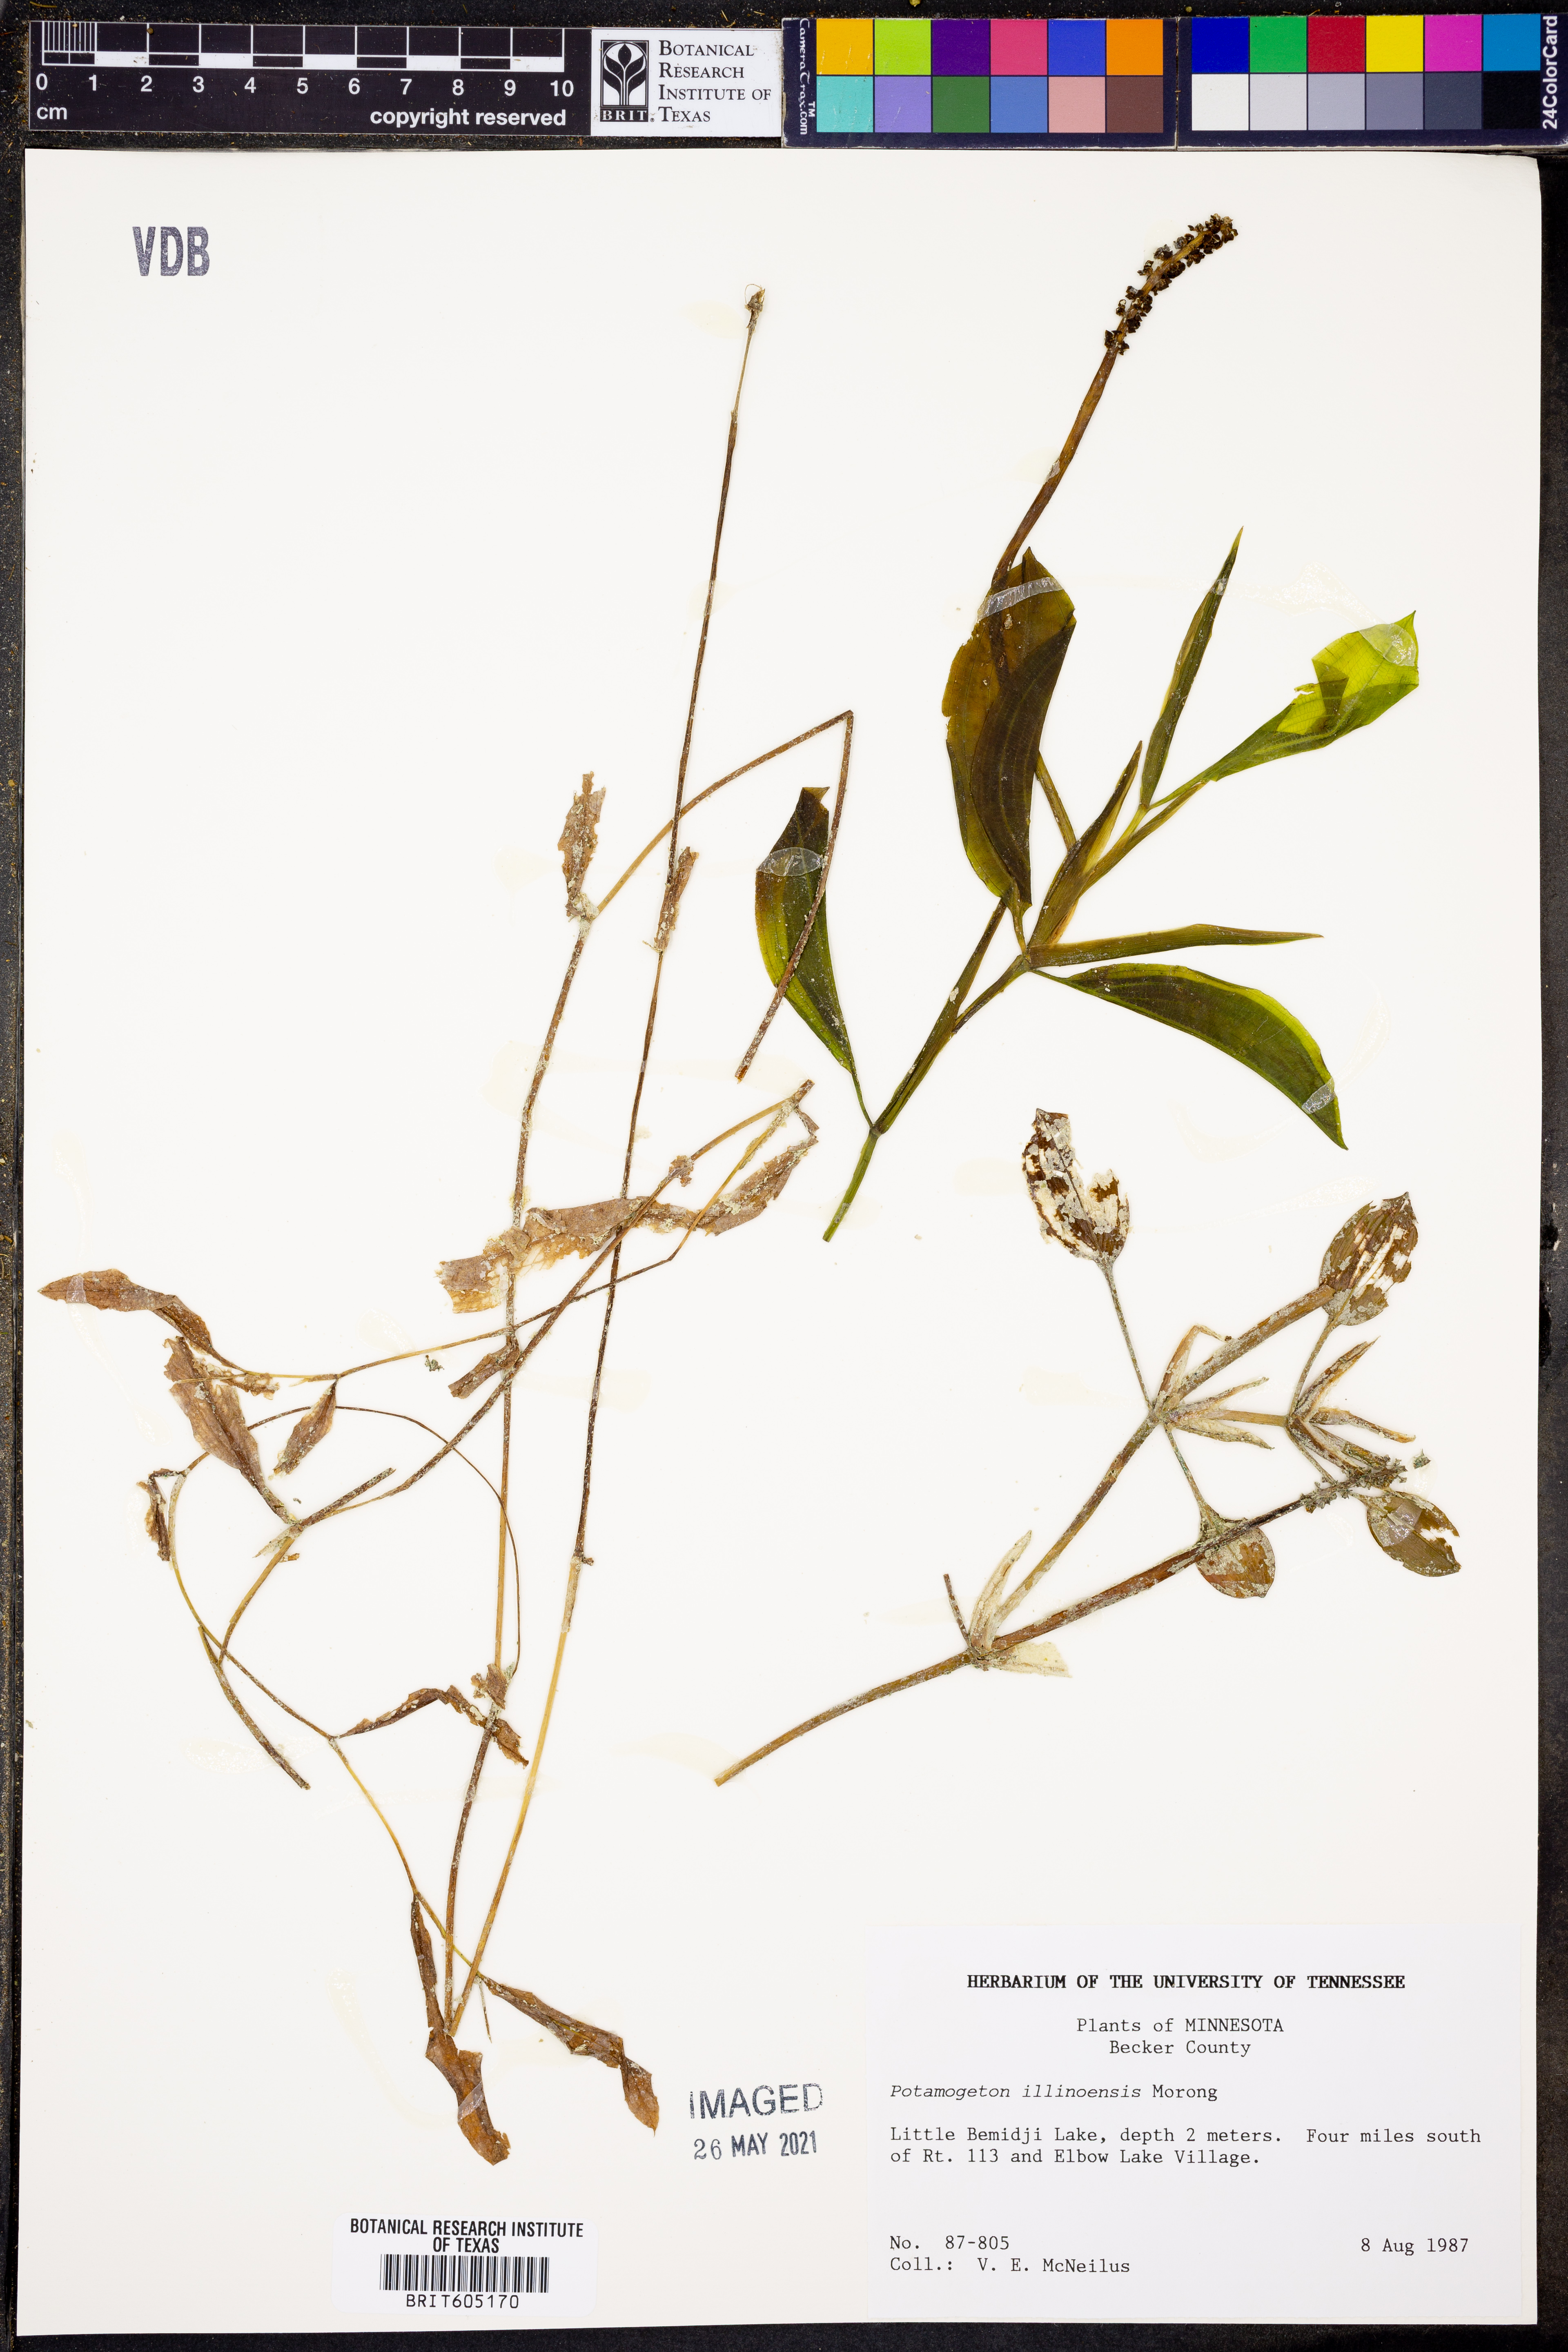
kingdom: Plantae
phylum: Tracheophyta
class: Liliopsida
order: Alismatales
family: Potamogetonaceae
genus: Potamogeton
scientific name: Potamogeton illinoensis
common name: Illinois pondweed
